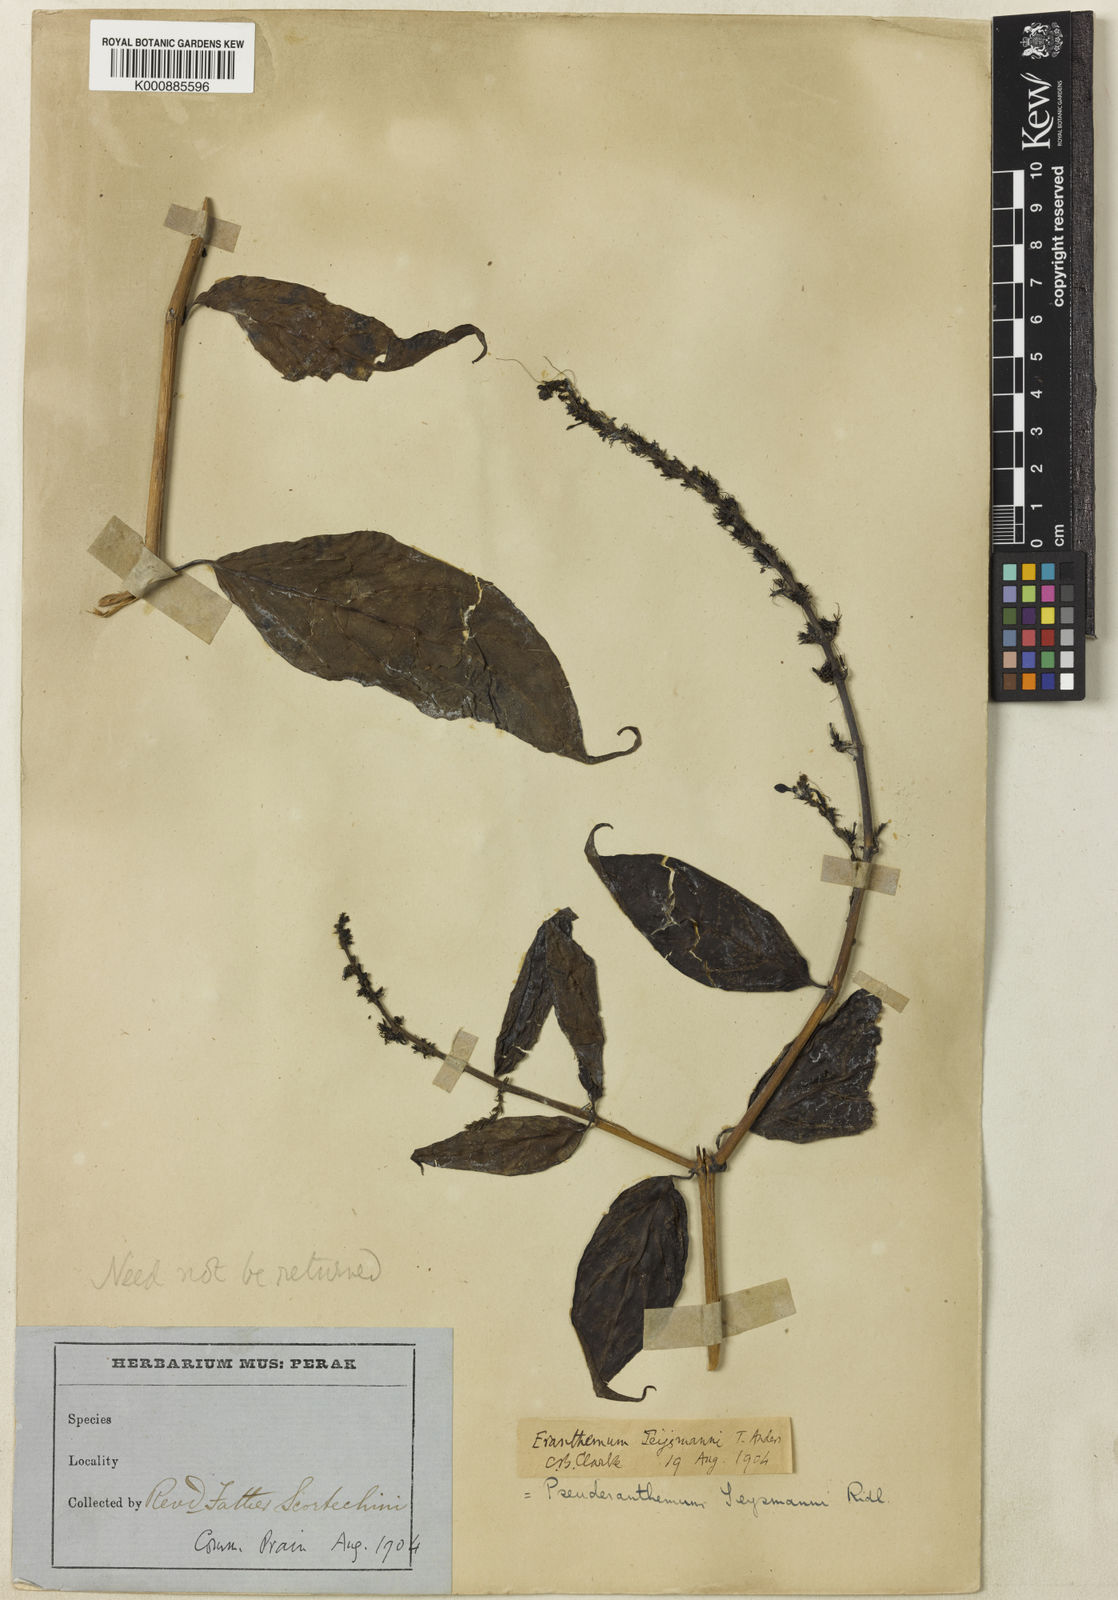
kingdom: Plantae
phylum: Tracheophyta
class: Magnoliopsida
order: Lamiales
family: Acanthaceae
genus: Pseuderanthemum
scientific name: Pseuderanthemum
